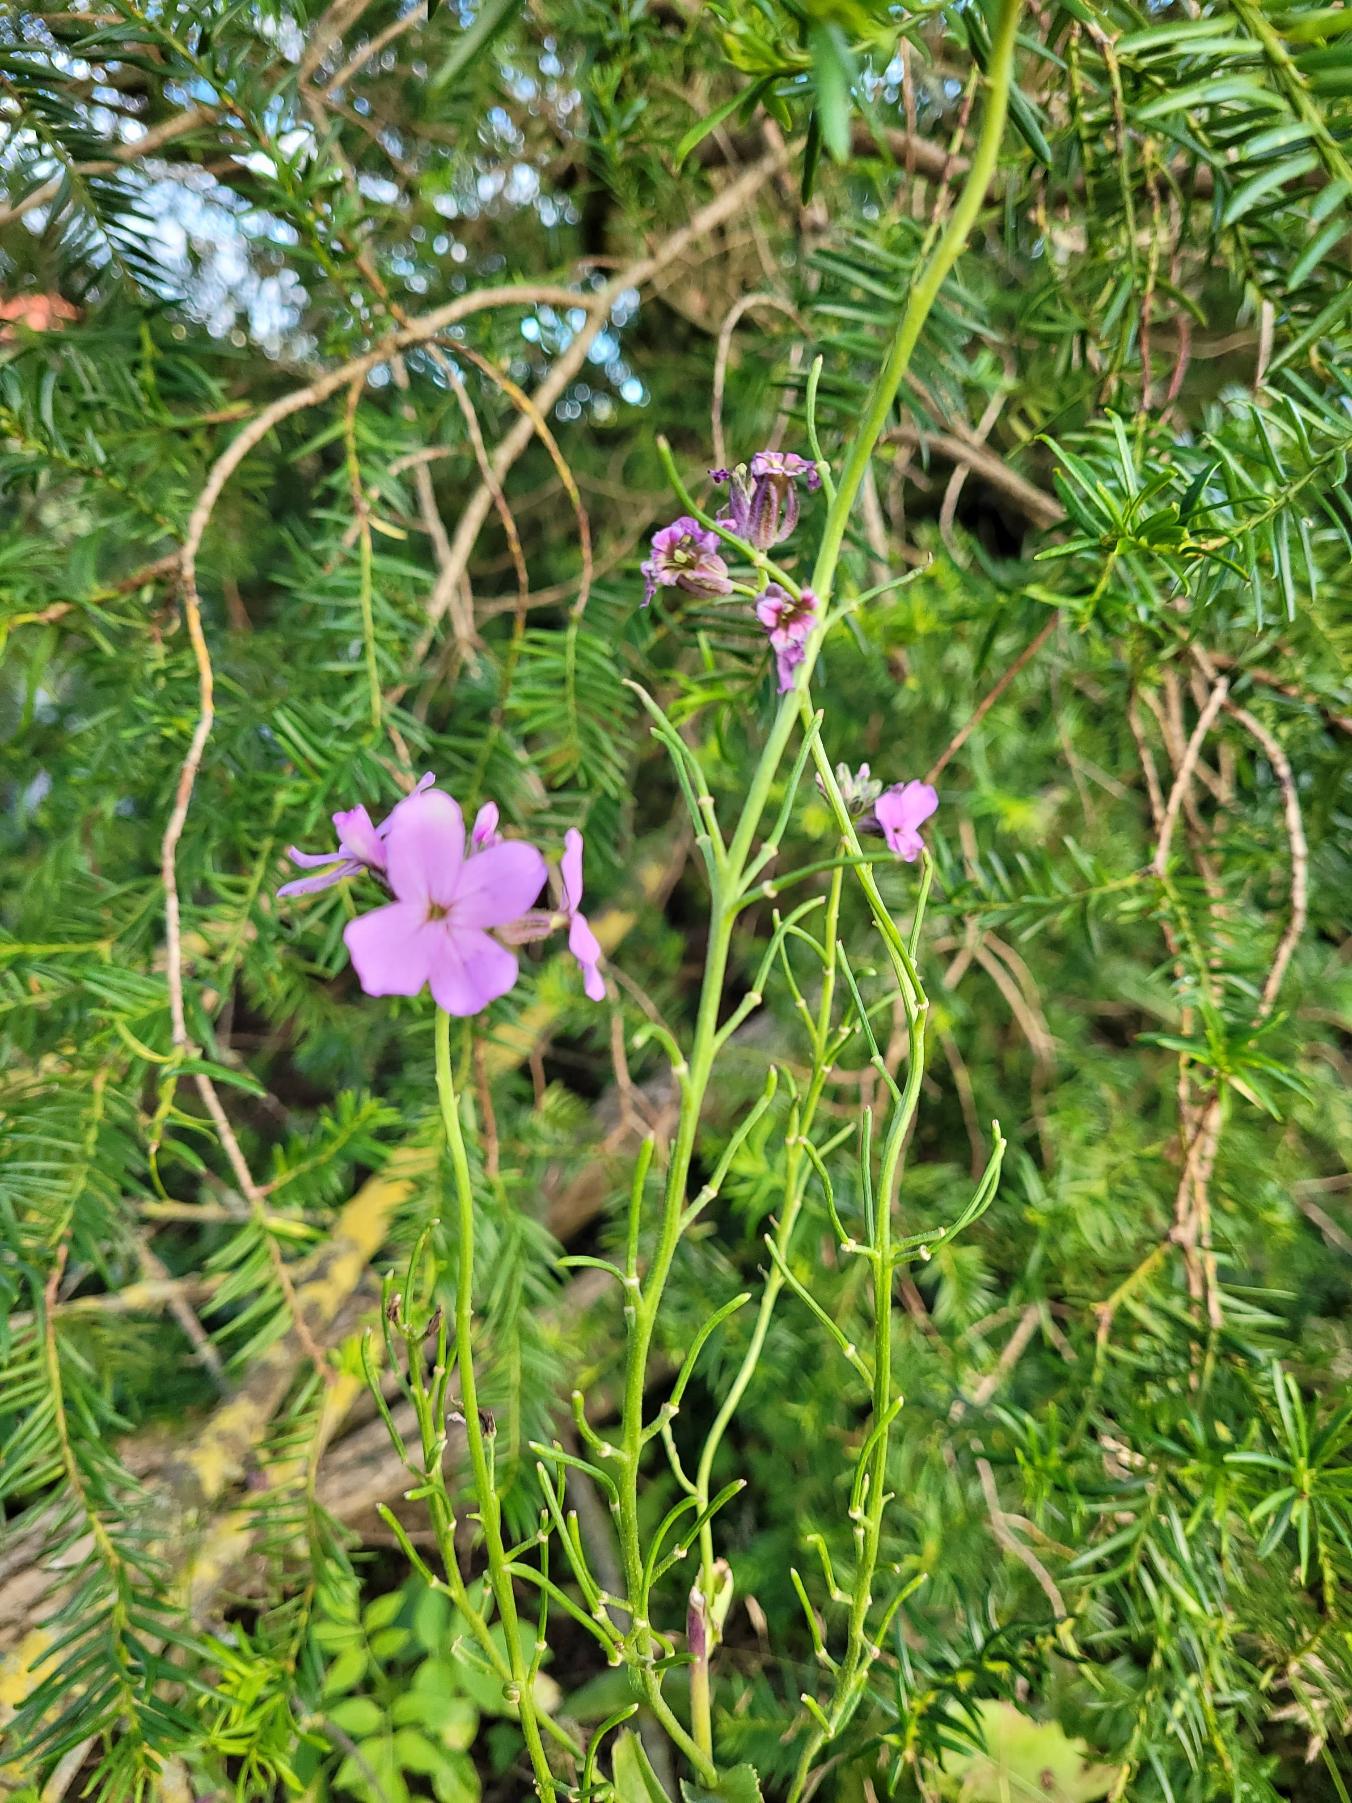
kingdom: Plantae
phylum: Tracheophyta
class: Magnoliopsida
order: Brassicales
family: Brassicaceae
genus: Hesperis
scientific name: Hesperis matronalis
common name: Aftenstjerne
